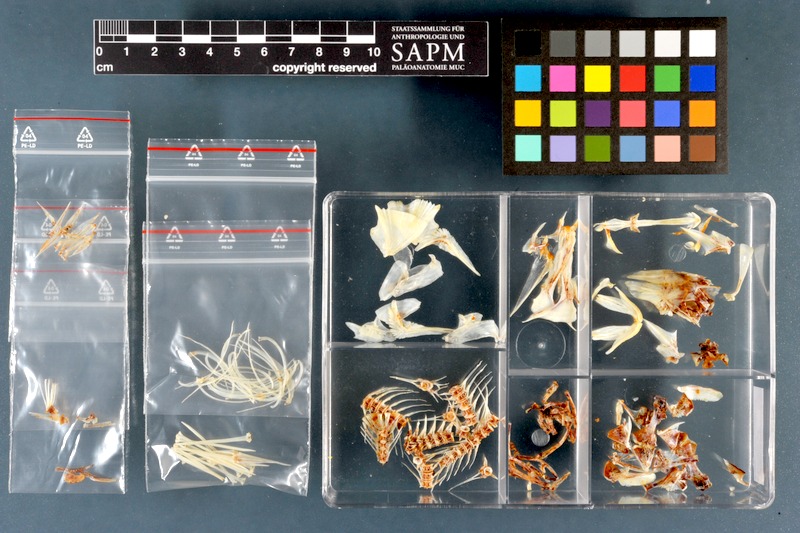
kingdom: Animalia
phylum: Chordata
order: Perciformes
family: Percidae
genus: Perca
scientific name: Perca fluviatilis
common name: Perch
